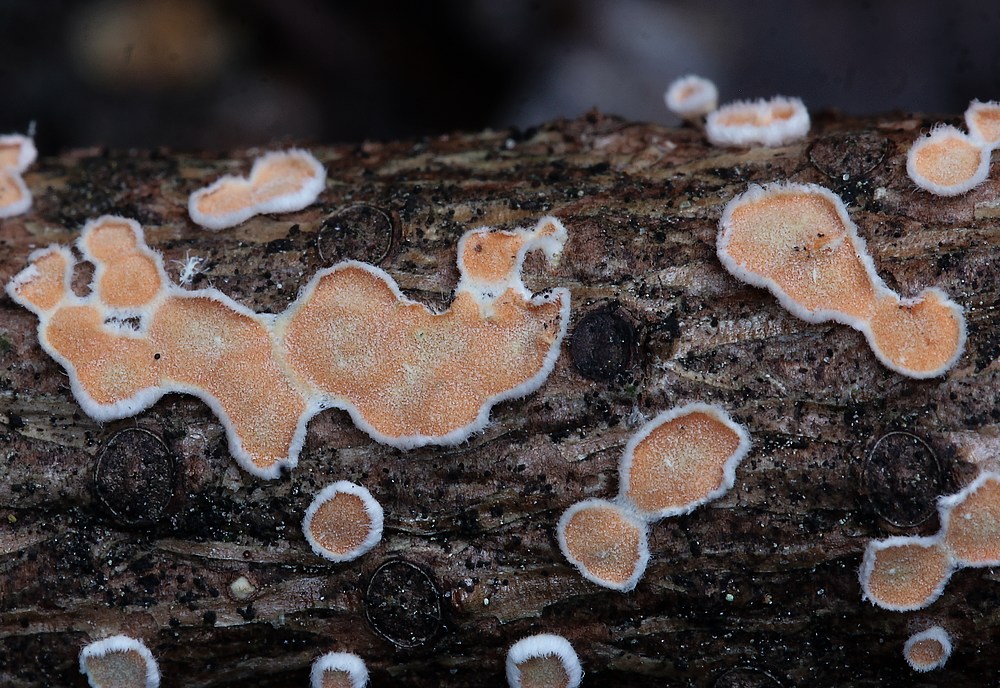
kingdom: Fungi
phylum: Basidiomycota
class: Agaricomycetes
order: Russulales
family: Stereaceae
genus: Aleurodiscus
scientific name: Aleurodiscus amorphus
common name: orange skiveskorpe
